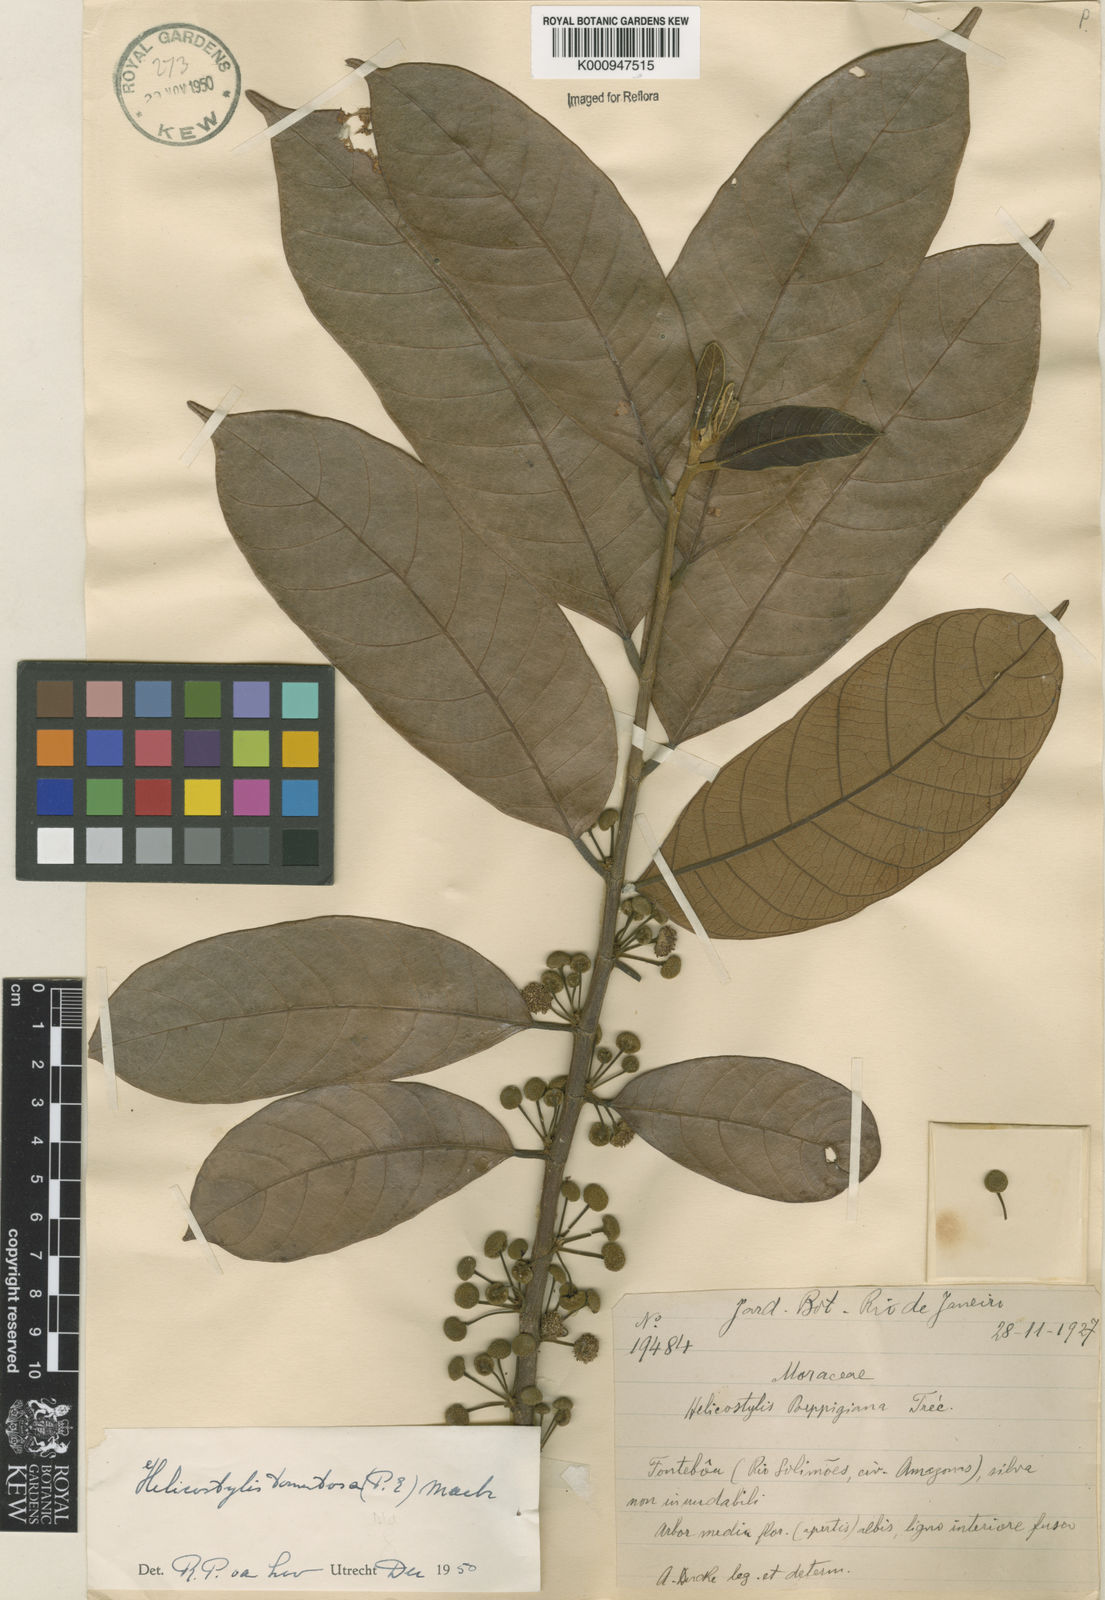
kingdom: Plantae
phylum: Tracheophyta
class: Magnoliopsida
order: Rosales
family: Moraceae
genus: Helicostylis
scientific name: Helicostylis
